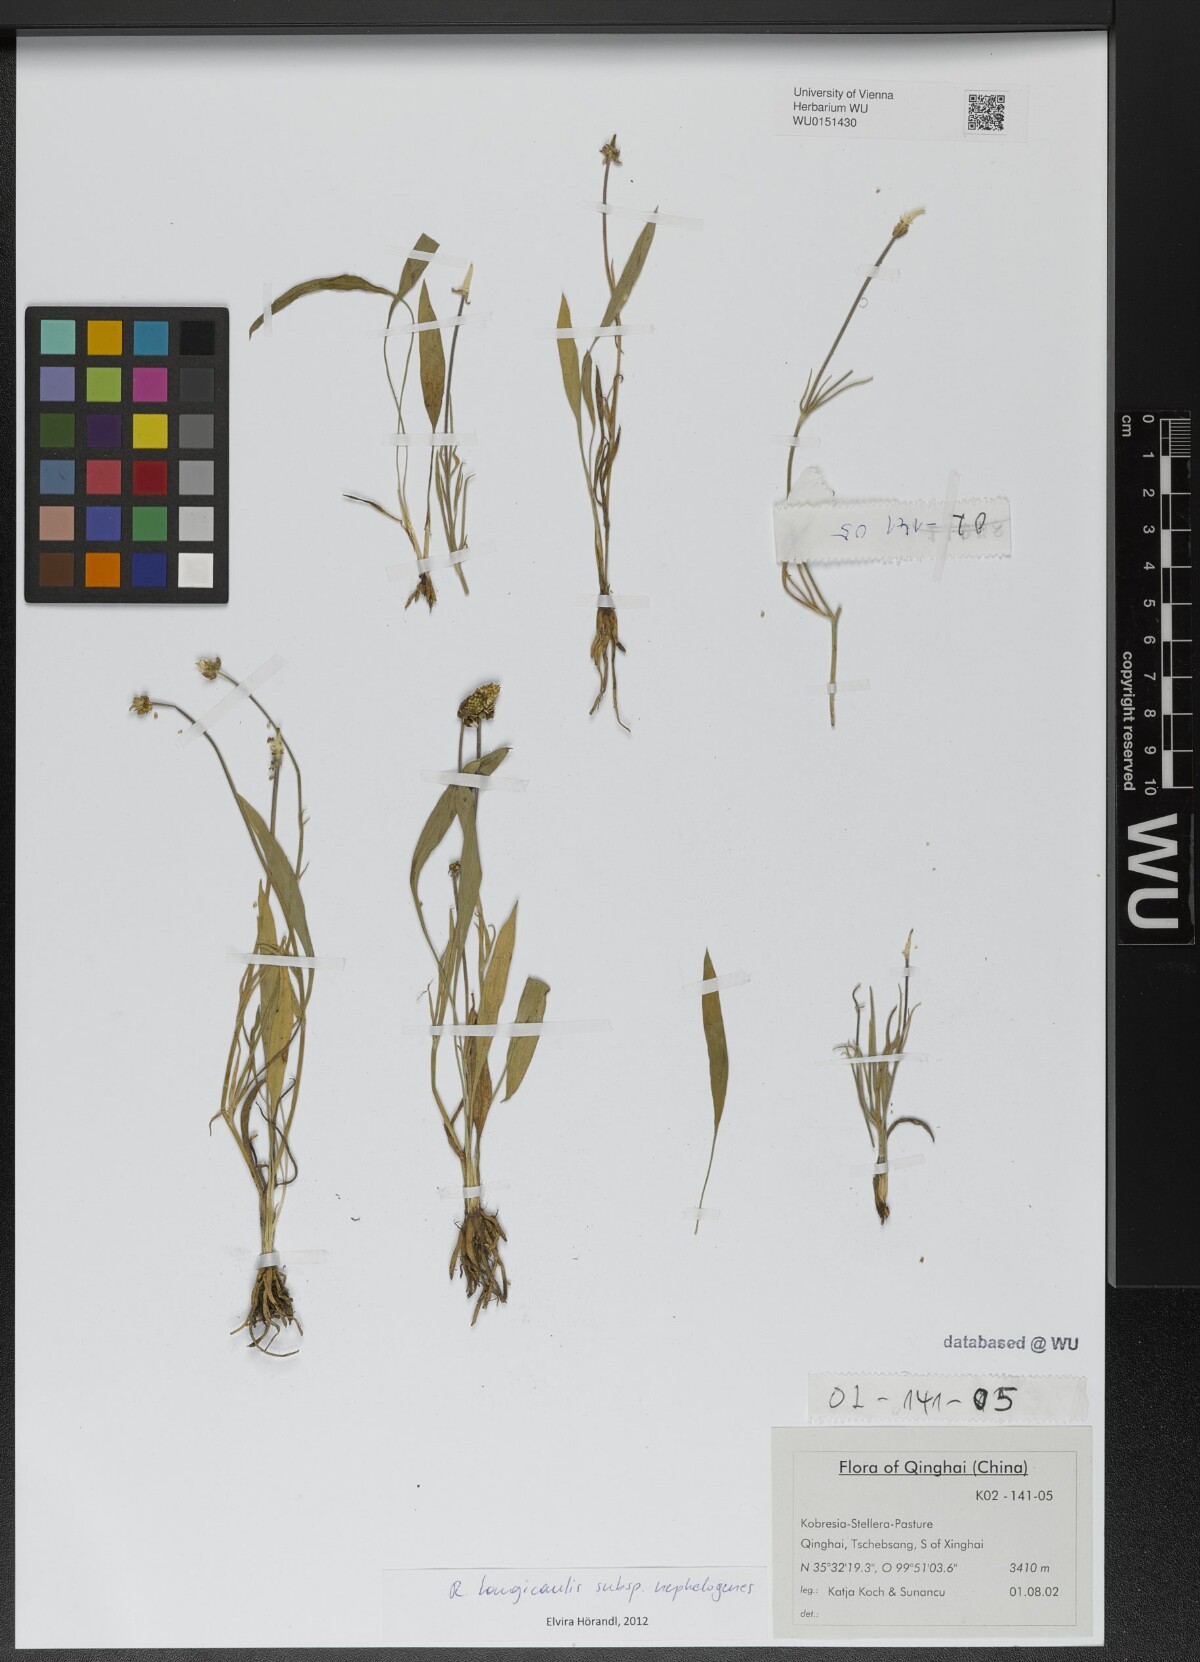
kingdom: Plantae
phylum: Tracheophyta
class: Magnoliopsida
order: Ranunculales
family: Ranunculaceae
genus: Ranunculus
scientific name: Ranunculus pulchellus
